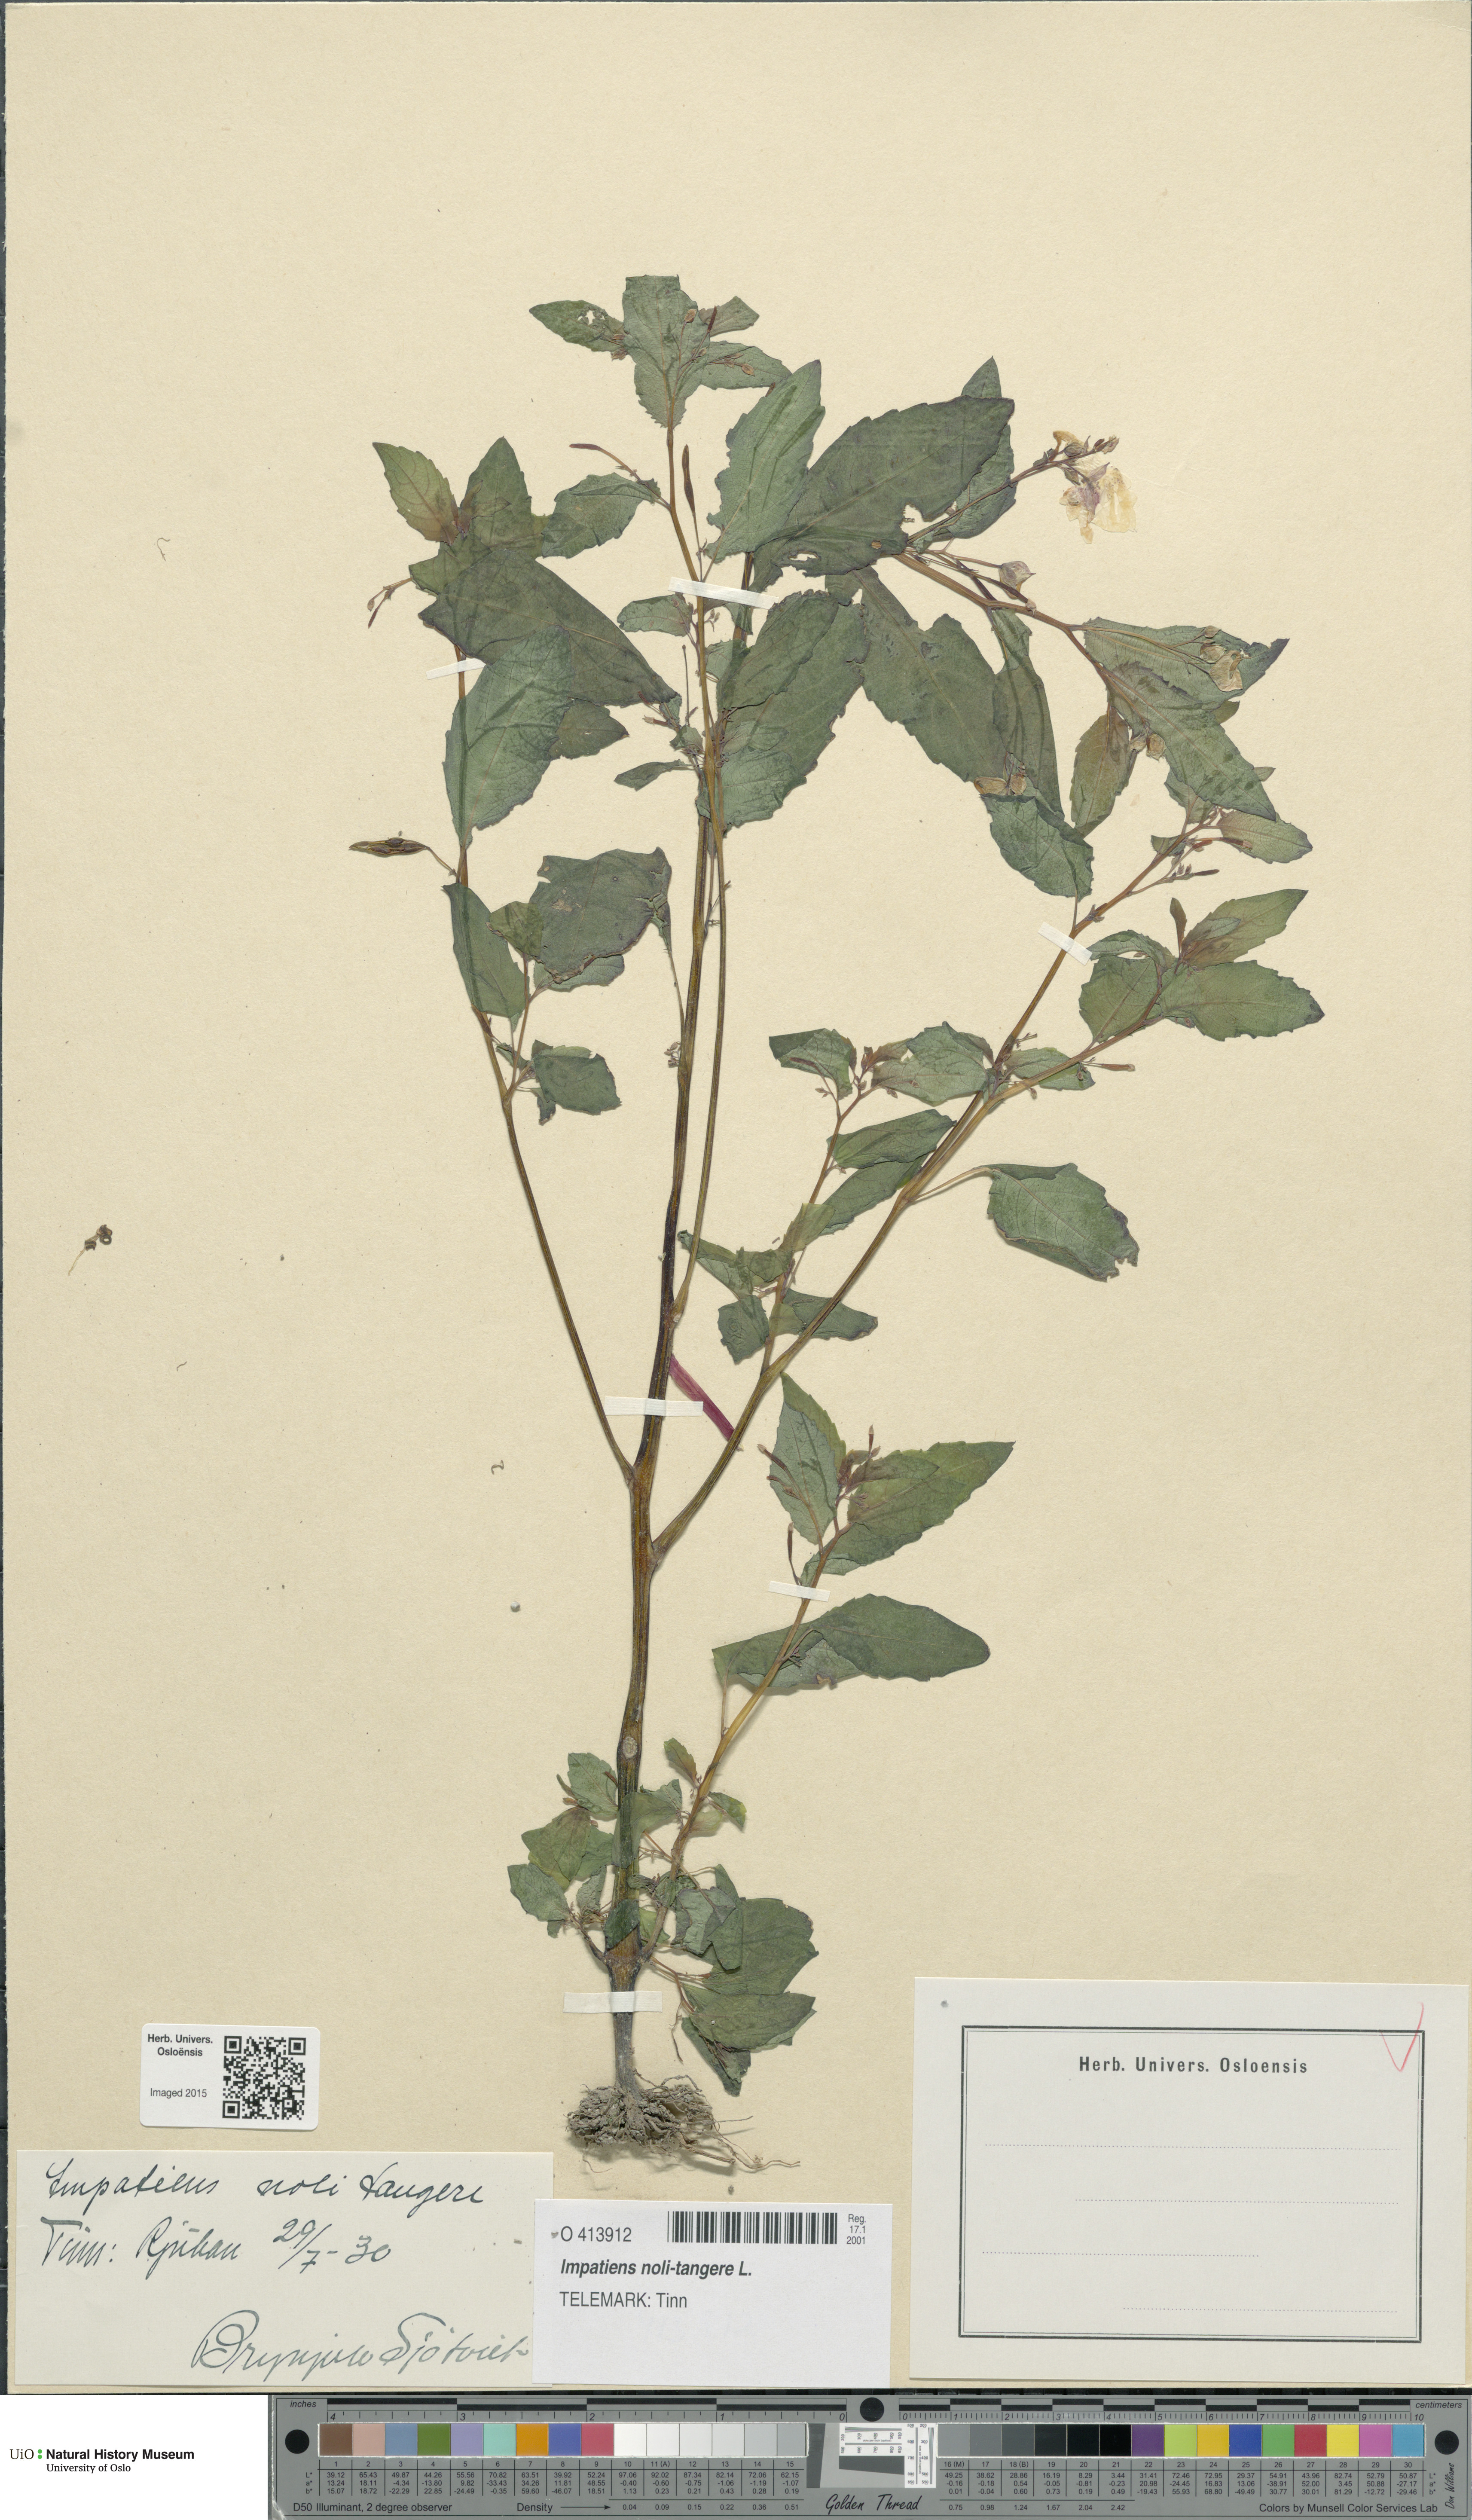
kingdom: Plantae
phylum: Tracheophyta
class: Magnoliopsida
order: Ericales
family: Balsaminaceae
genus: Impatiens
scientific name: Impatiens noli-tangere
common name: Touch-me-not balsam
